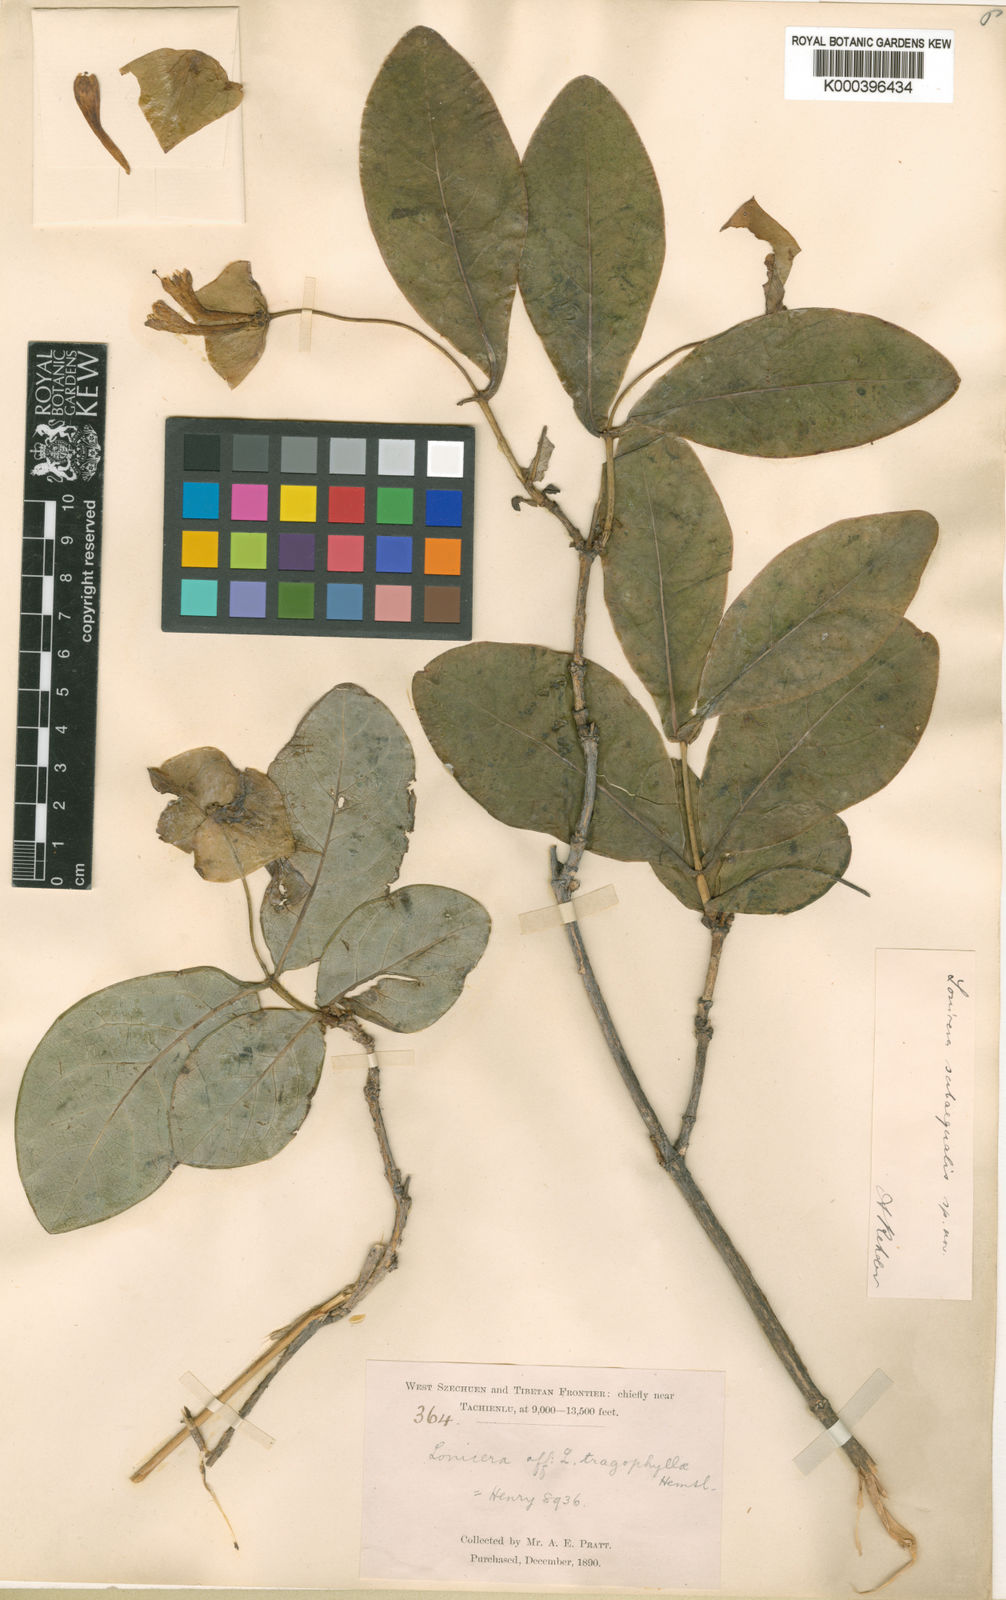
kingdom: Plantae
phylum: Tracheophyta
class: Magnoliopsida
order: Dipsacales
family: Caprifoliaceae
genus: Lonicera
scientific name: Lonicera subaequalis
